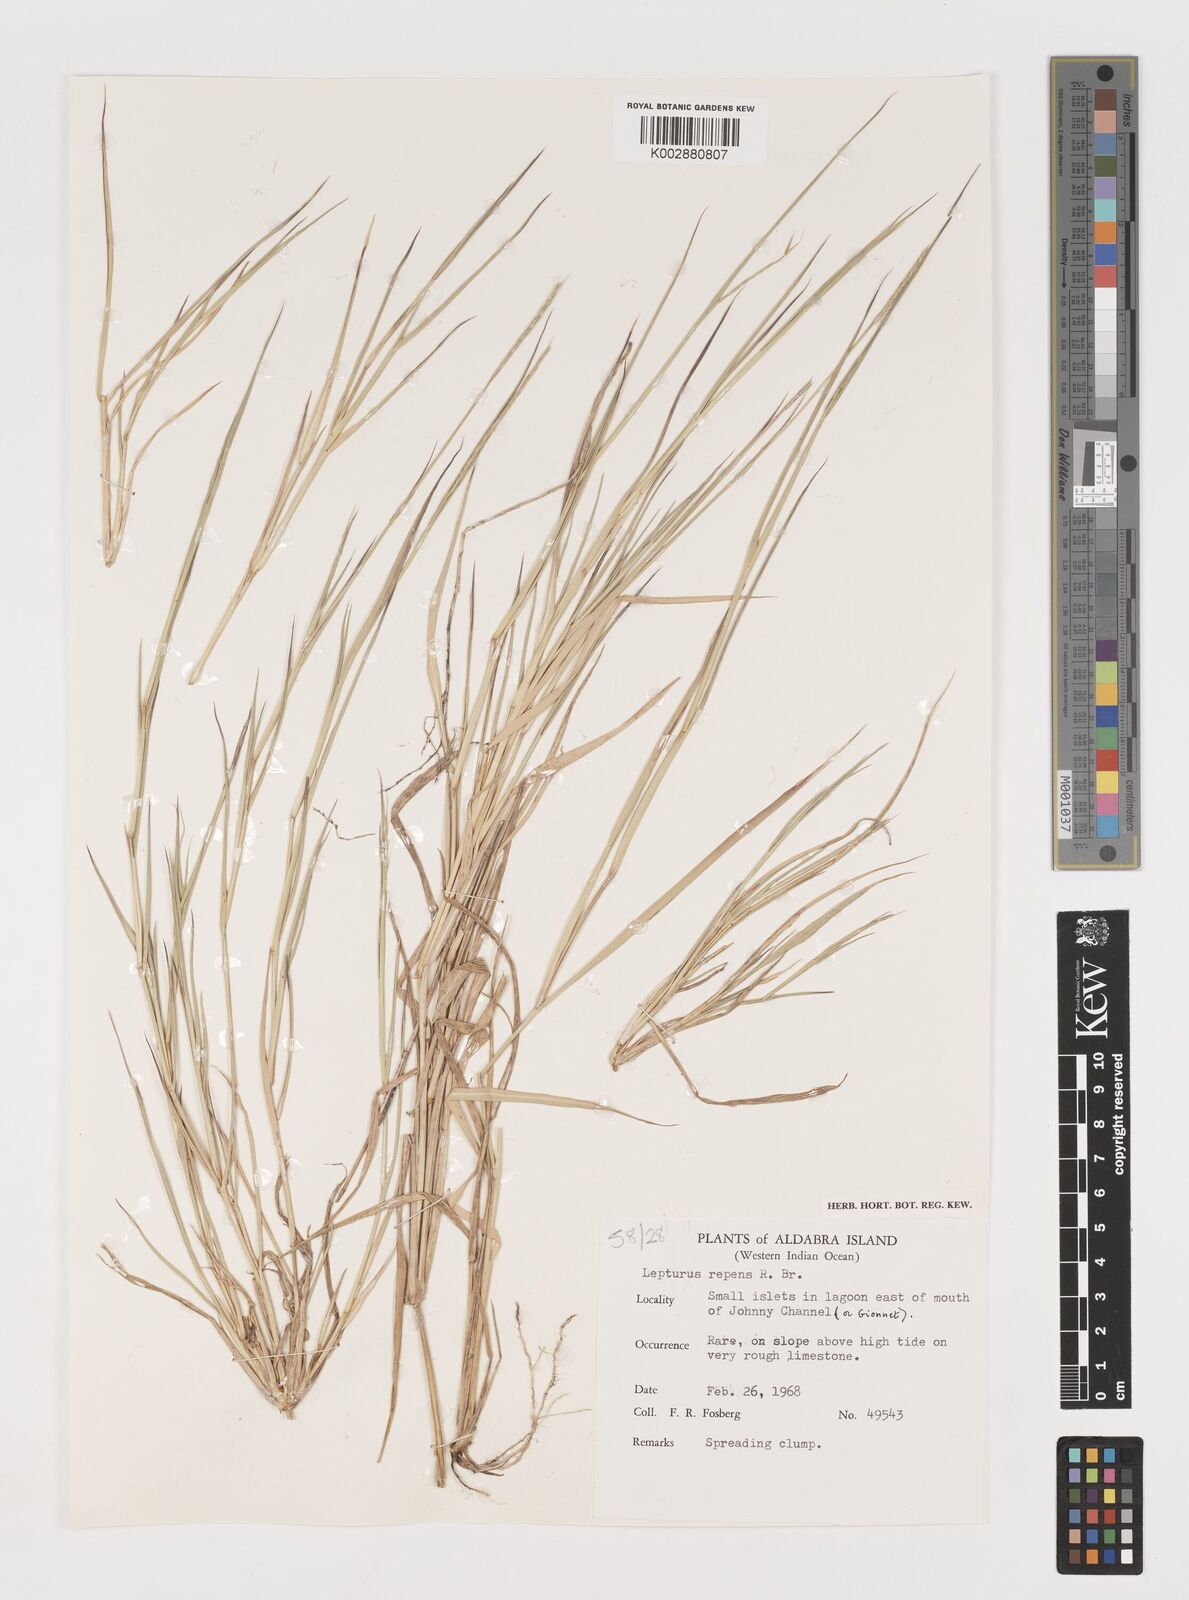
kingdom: Plantae
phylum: Tracheophyta
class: Liliopsida
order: Poales
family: Poaceae
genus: Lepturus
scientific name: Lepturus repens
